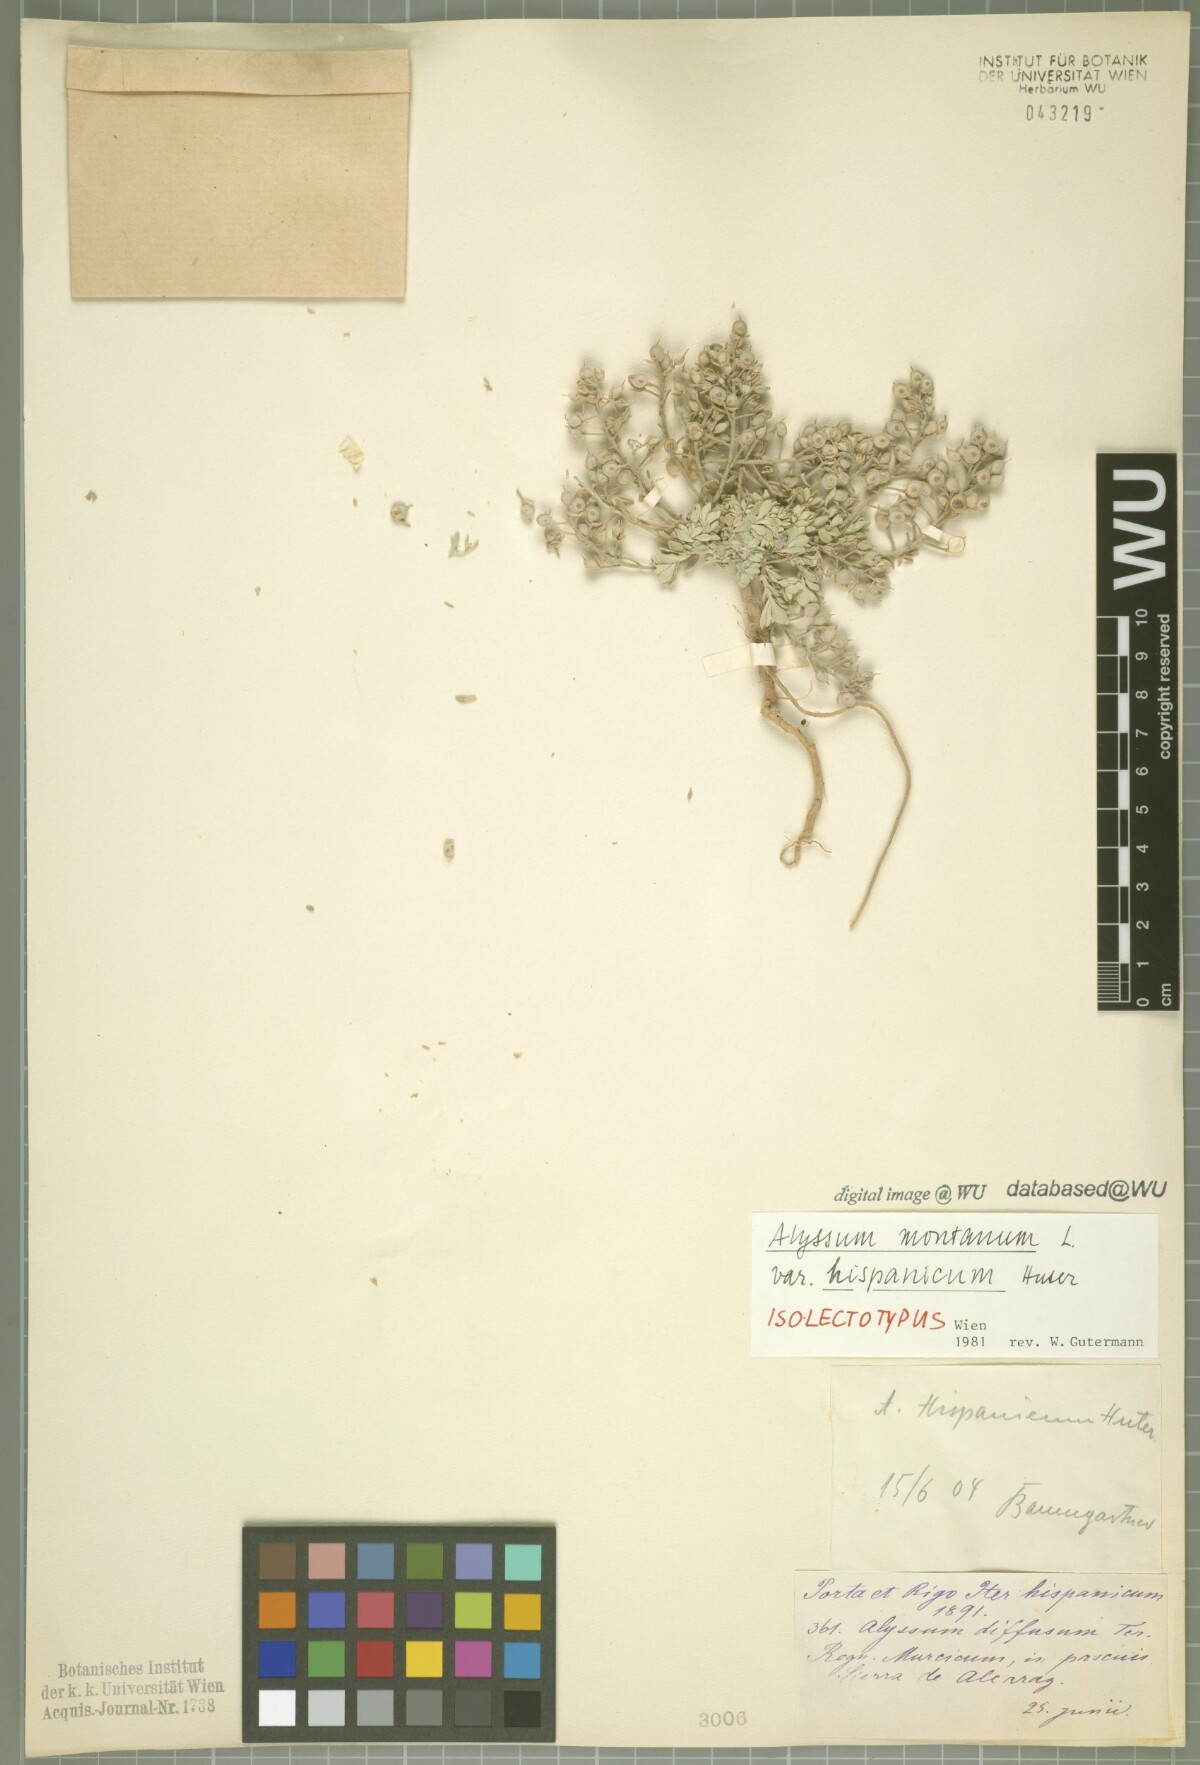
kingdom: Plantae
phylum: Tracheophyta
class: Magnoliopsida
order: Brassicales
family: Brassicaceae
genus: Alyssum
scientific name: Alyssum fastigiatum
